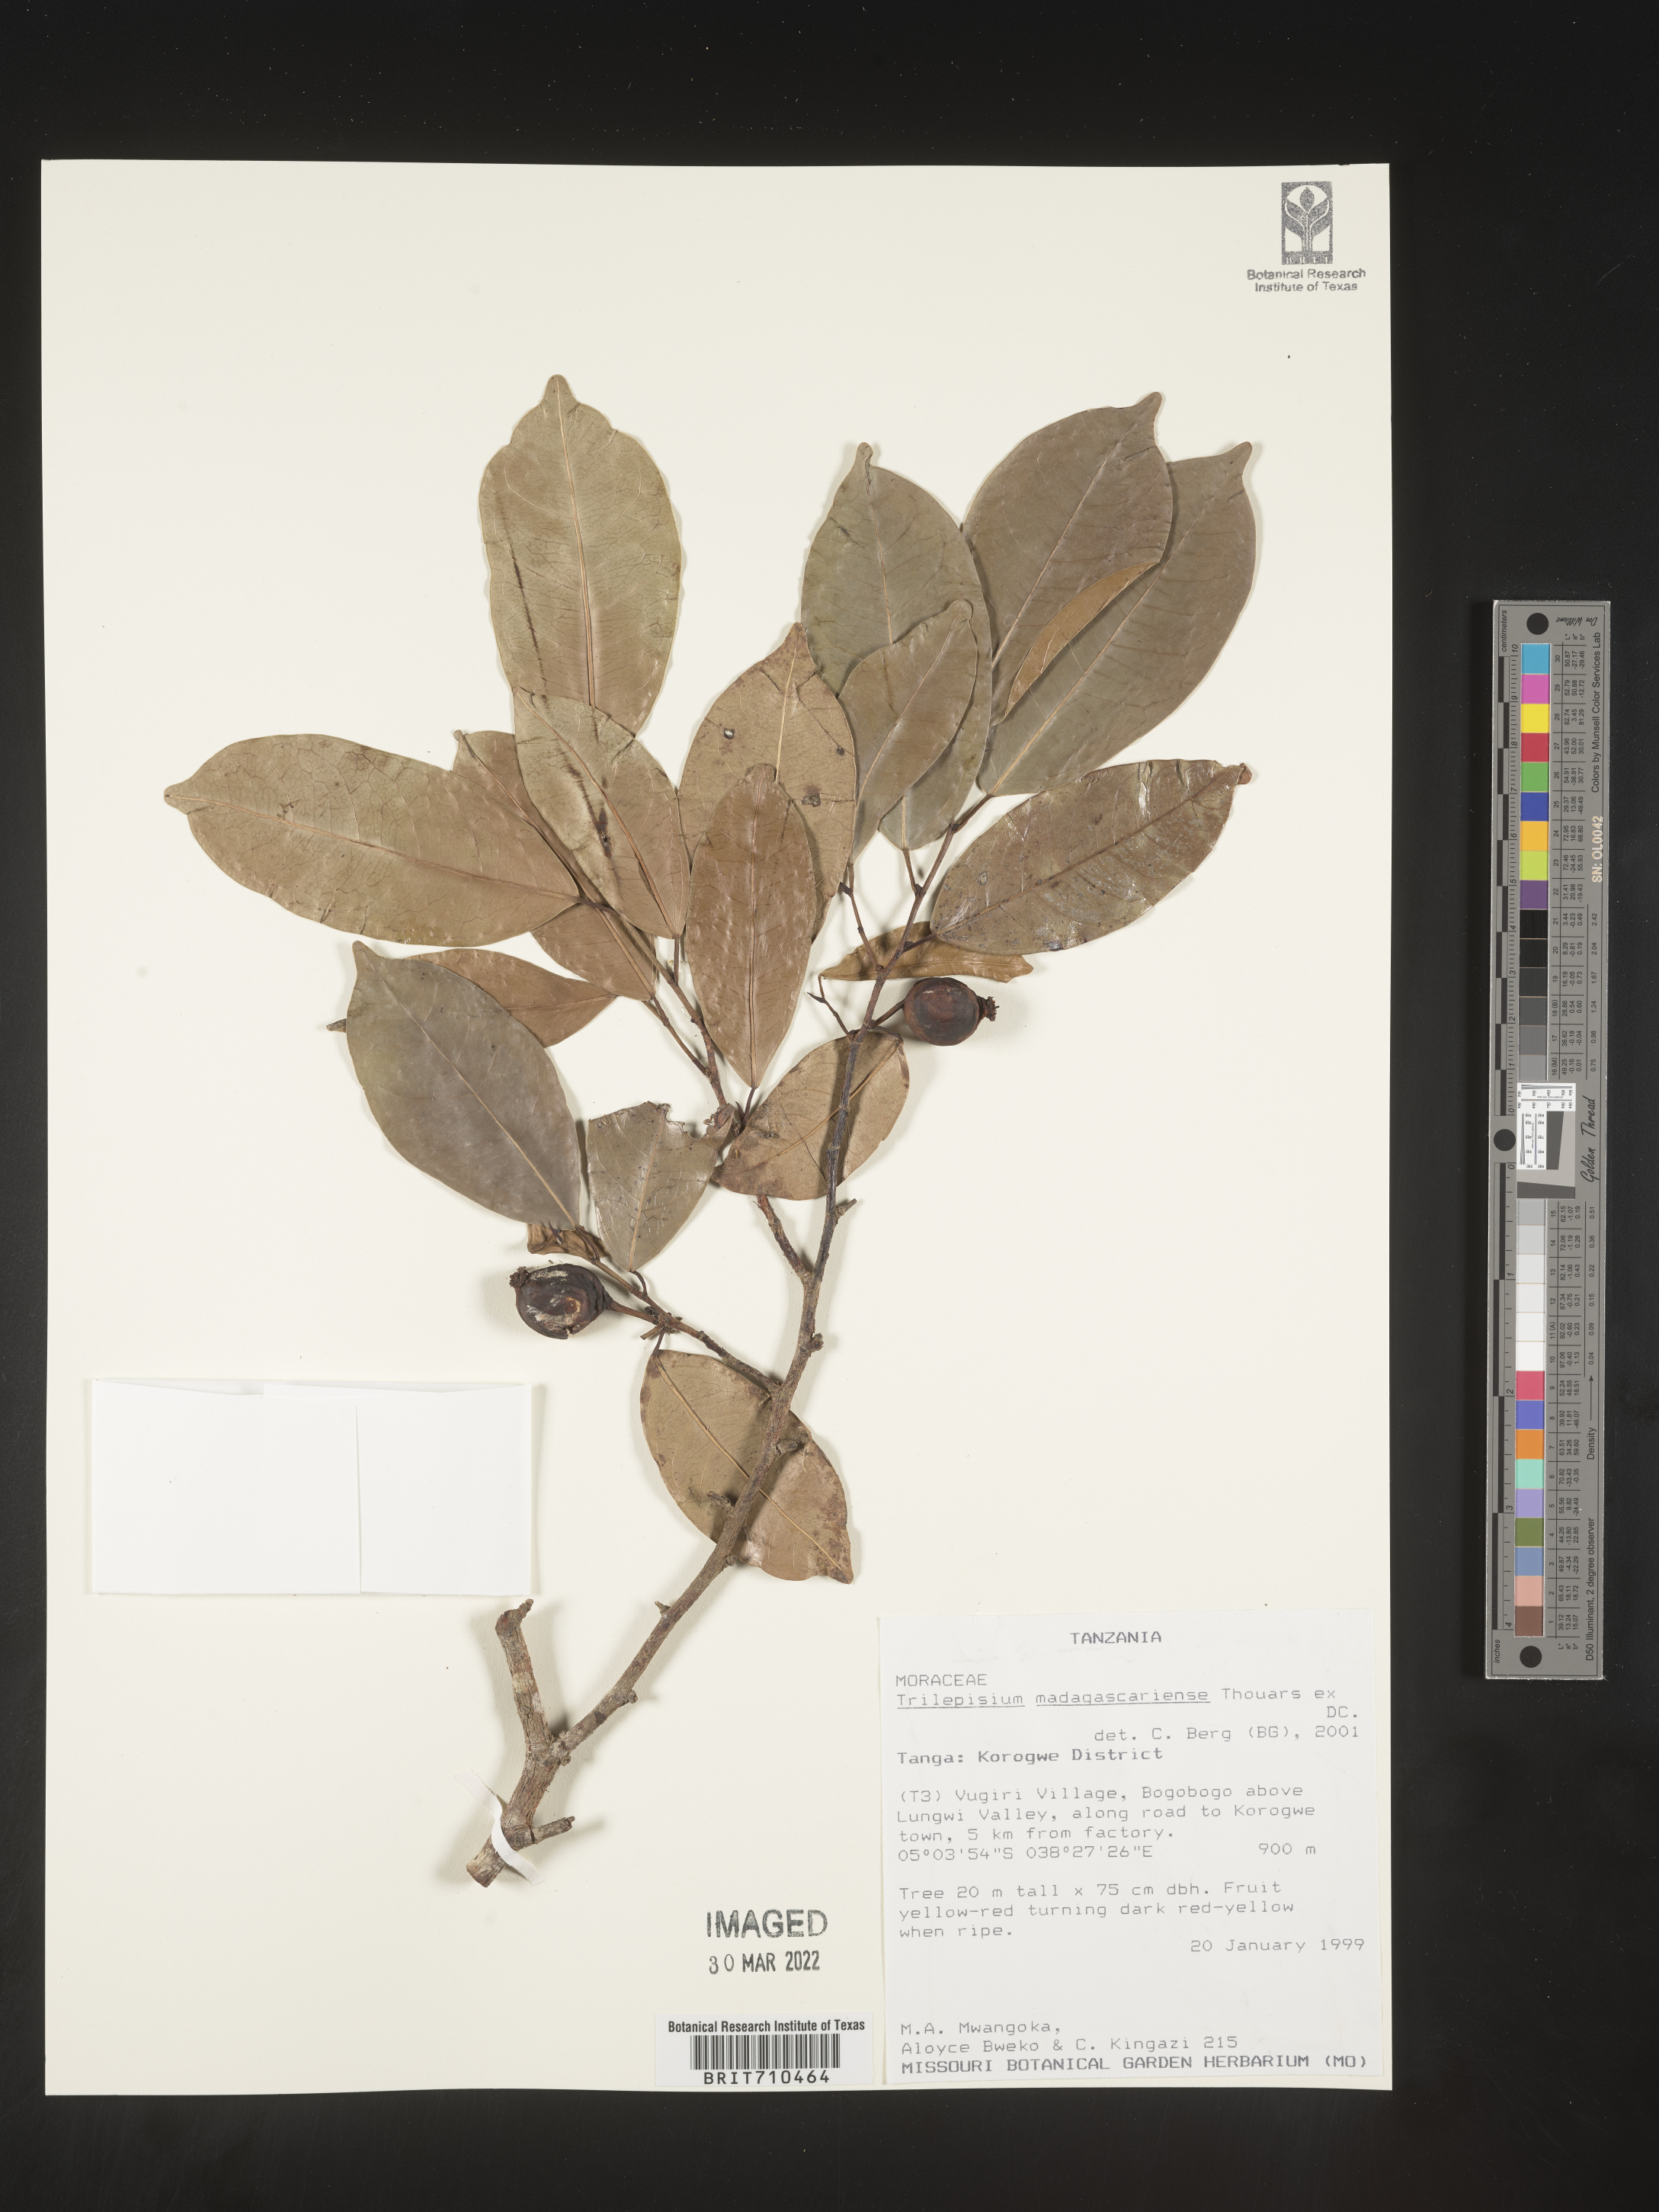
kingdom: Plantae
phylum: Tracheophyta
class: Magnoliopsida
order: Rosales
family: Moraceae
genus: Trilepisium
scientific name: Trilepisium
